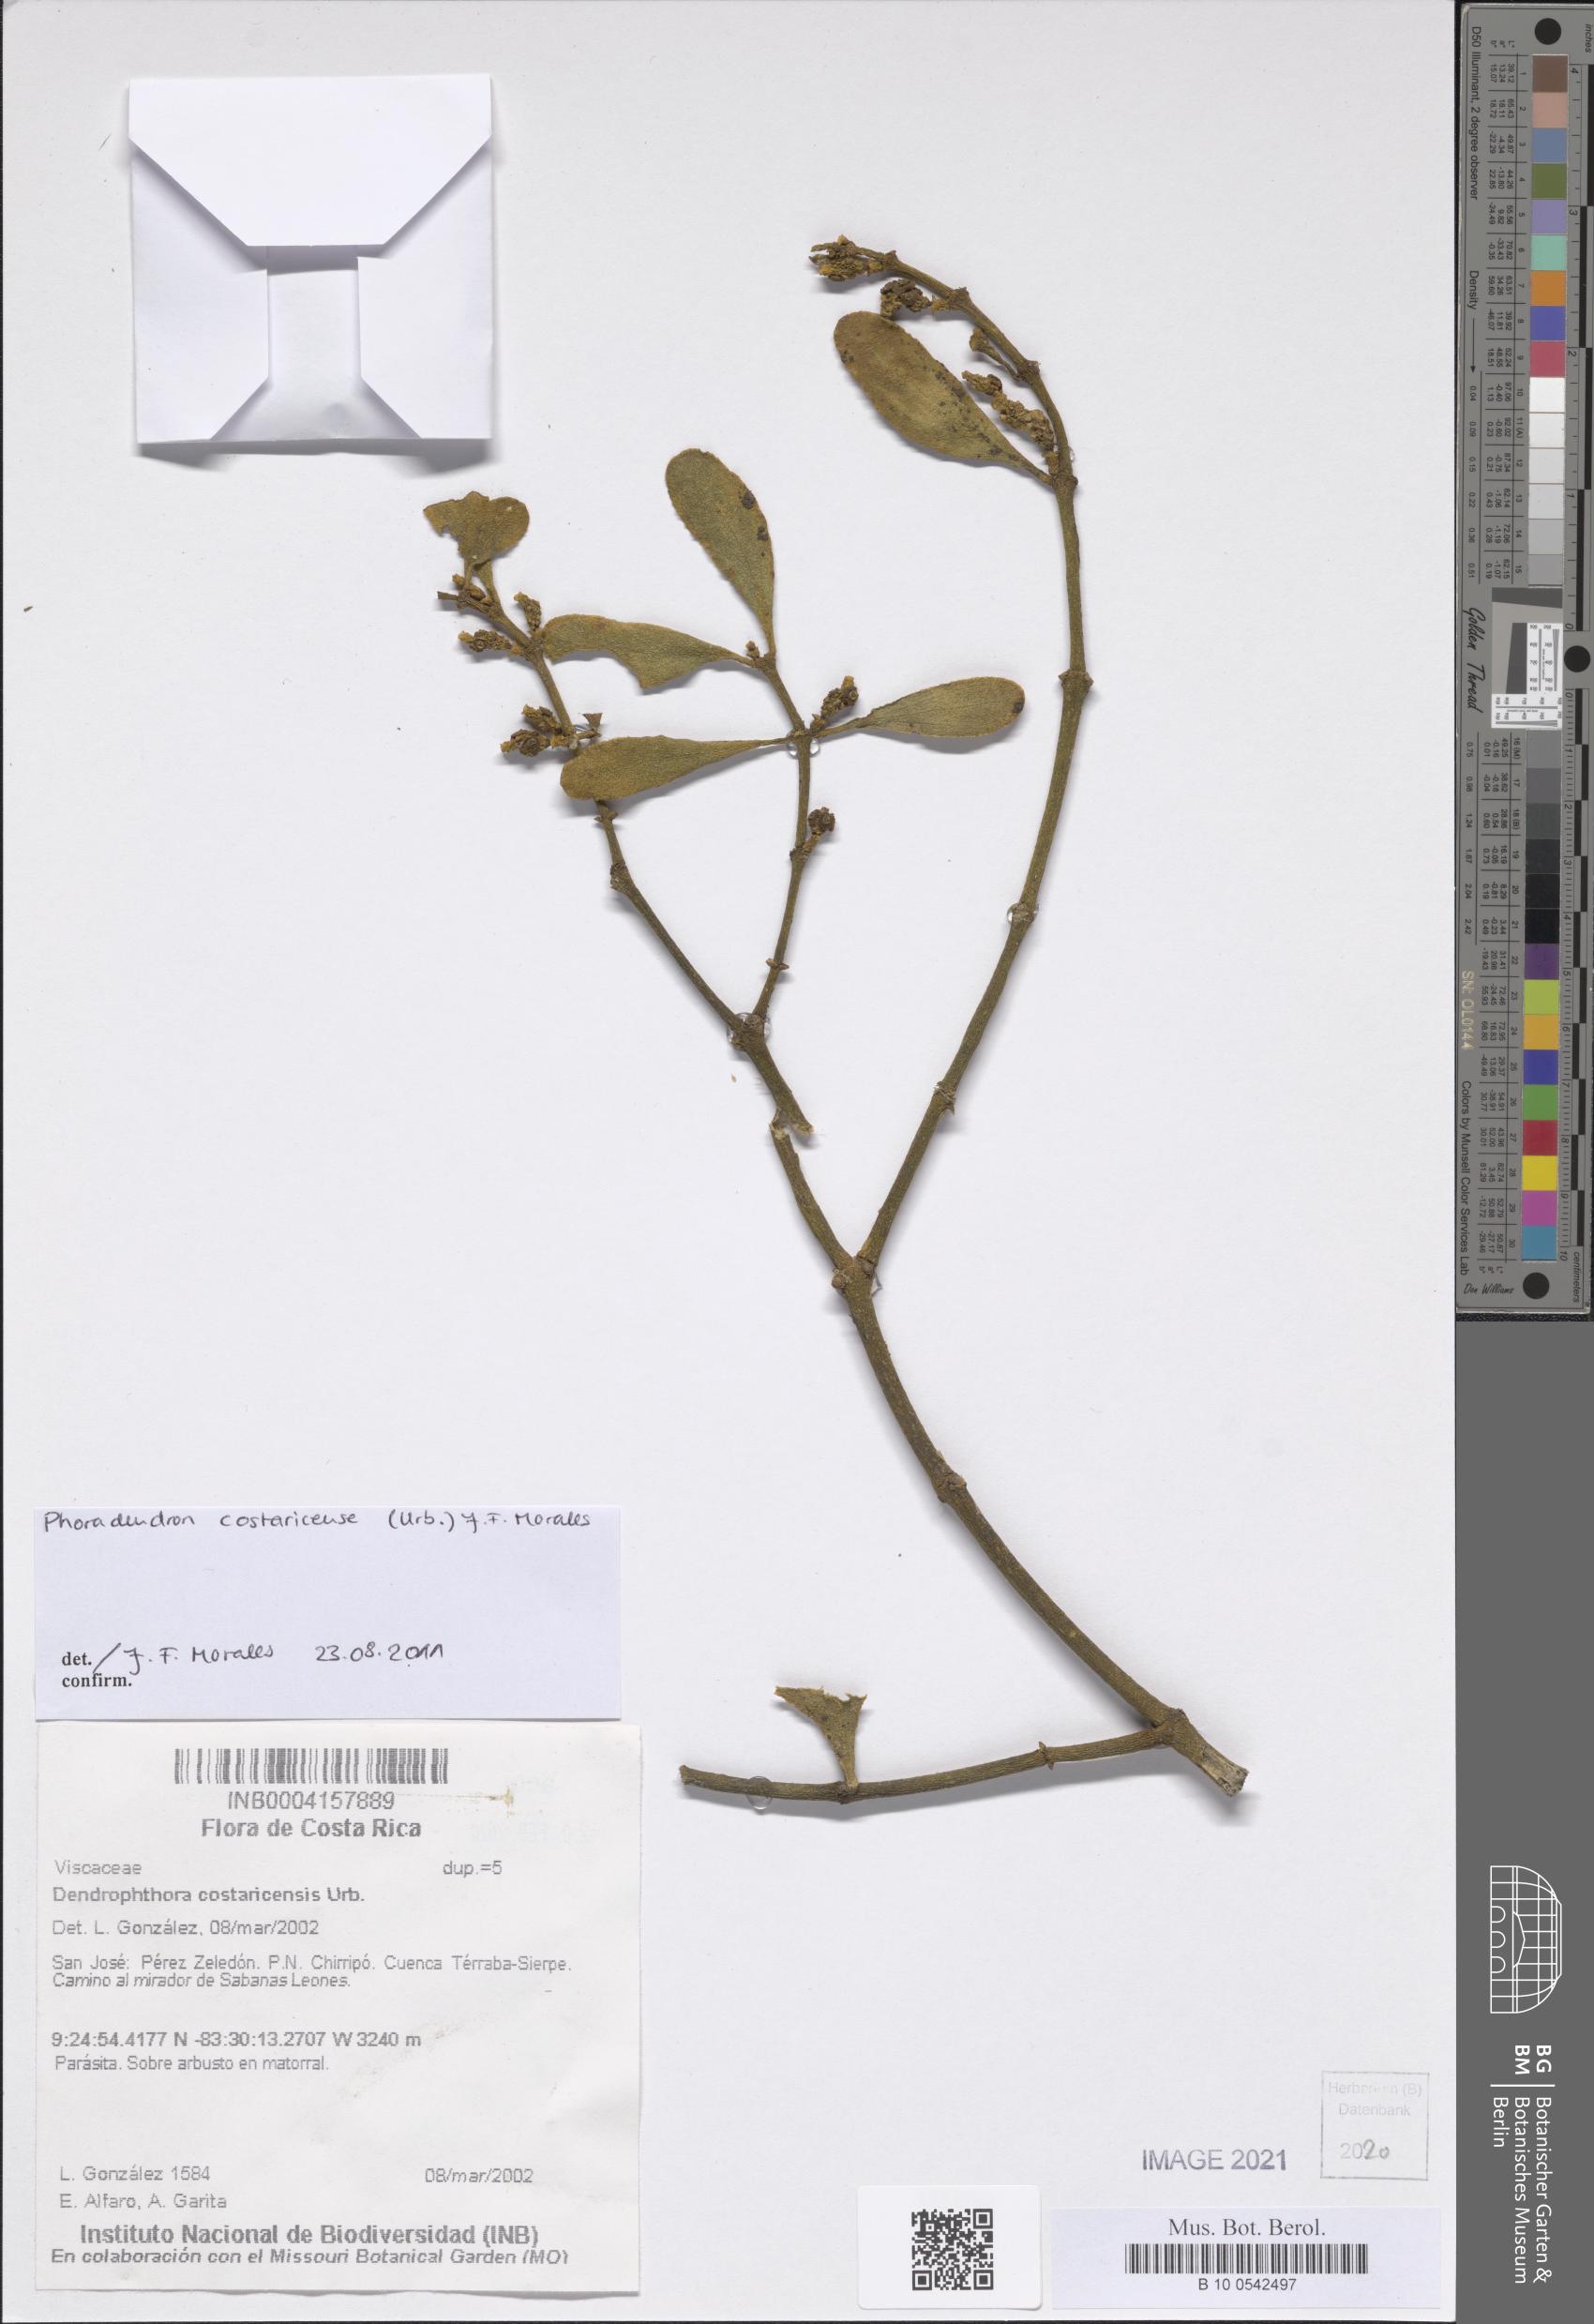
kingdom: Plantae
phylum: Tracheophyta
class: Magnoliopsida
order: Santalales
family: Viscaceae
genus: Phoradendron
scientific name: Phoradendron costaricense
